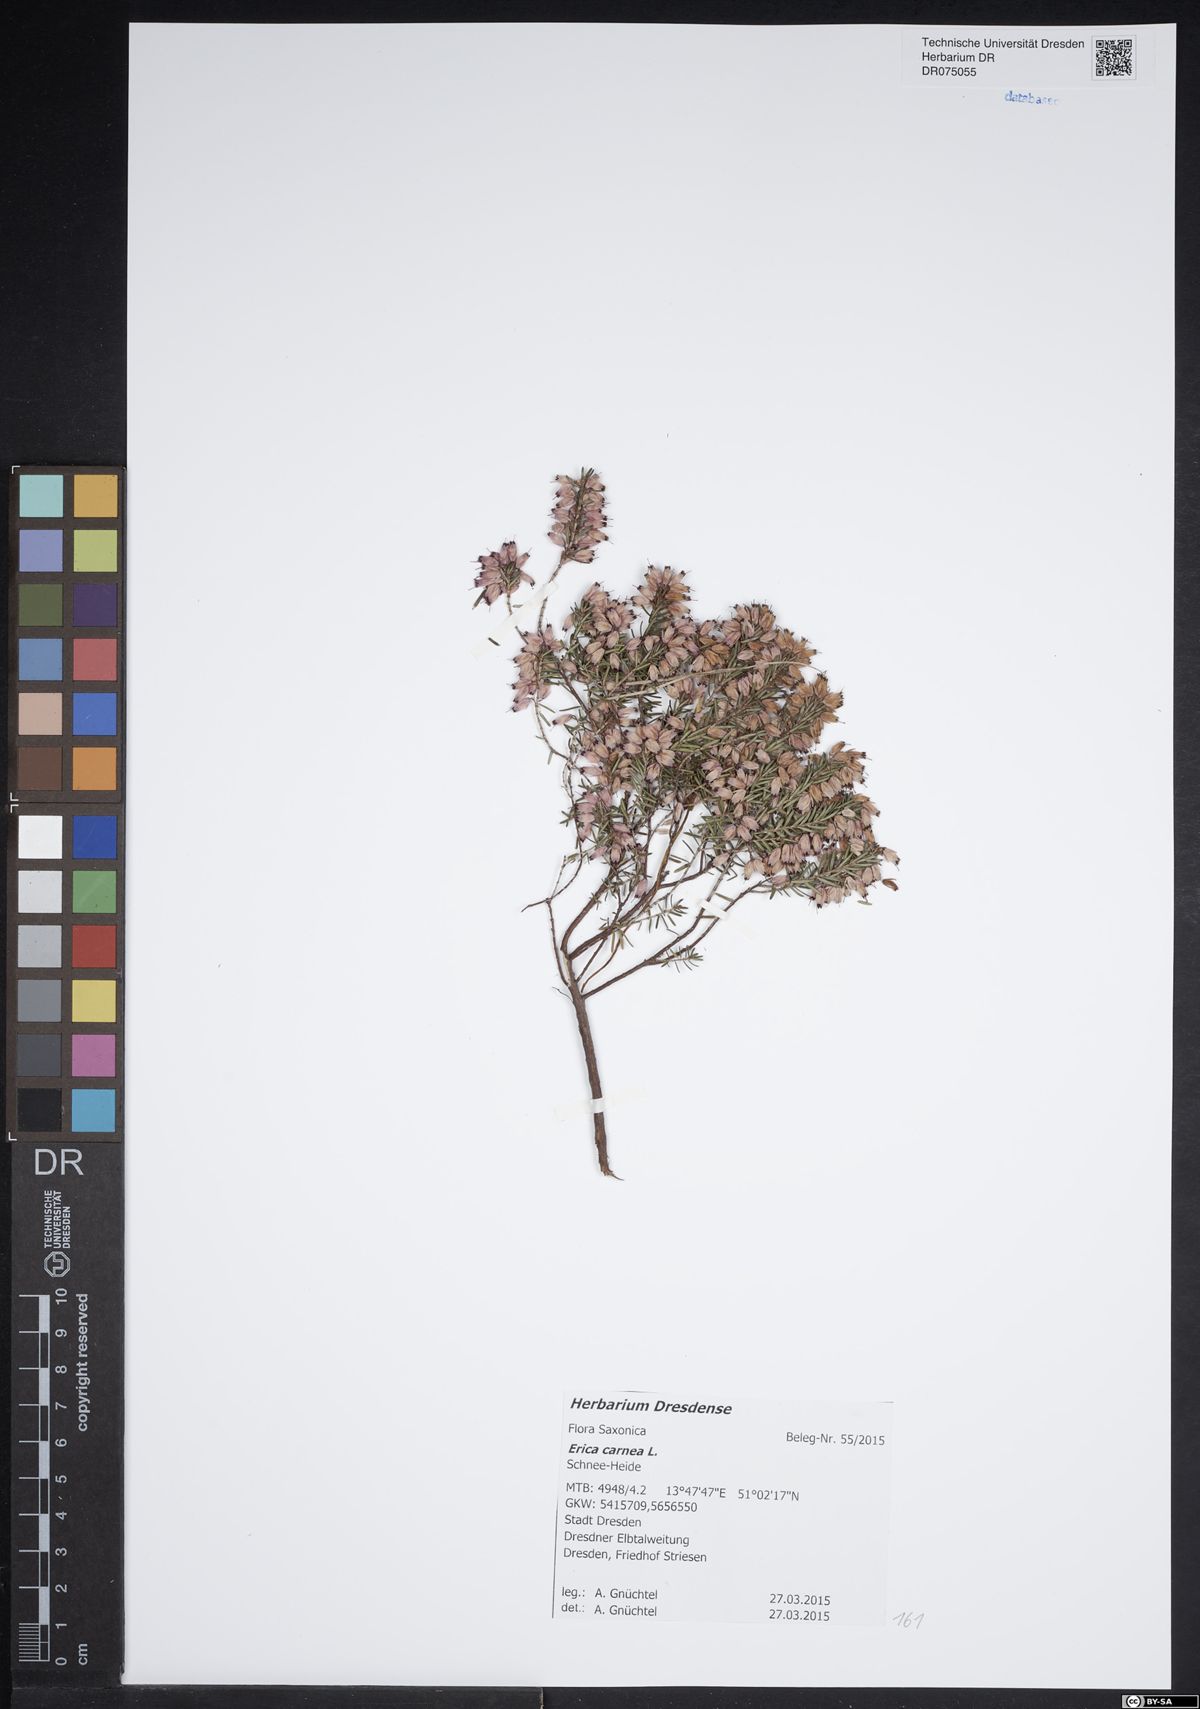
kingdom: Plantae
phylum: Tracheophyta
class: Magnoliopsida
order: Ericales
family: Ericaceae
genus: Erica
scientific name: Erica carnea
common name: Winter heath
